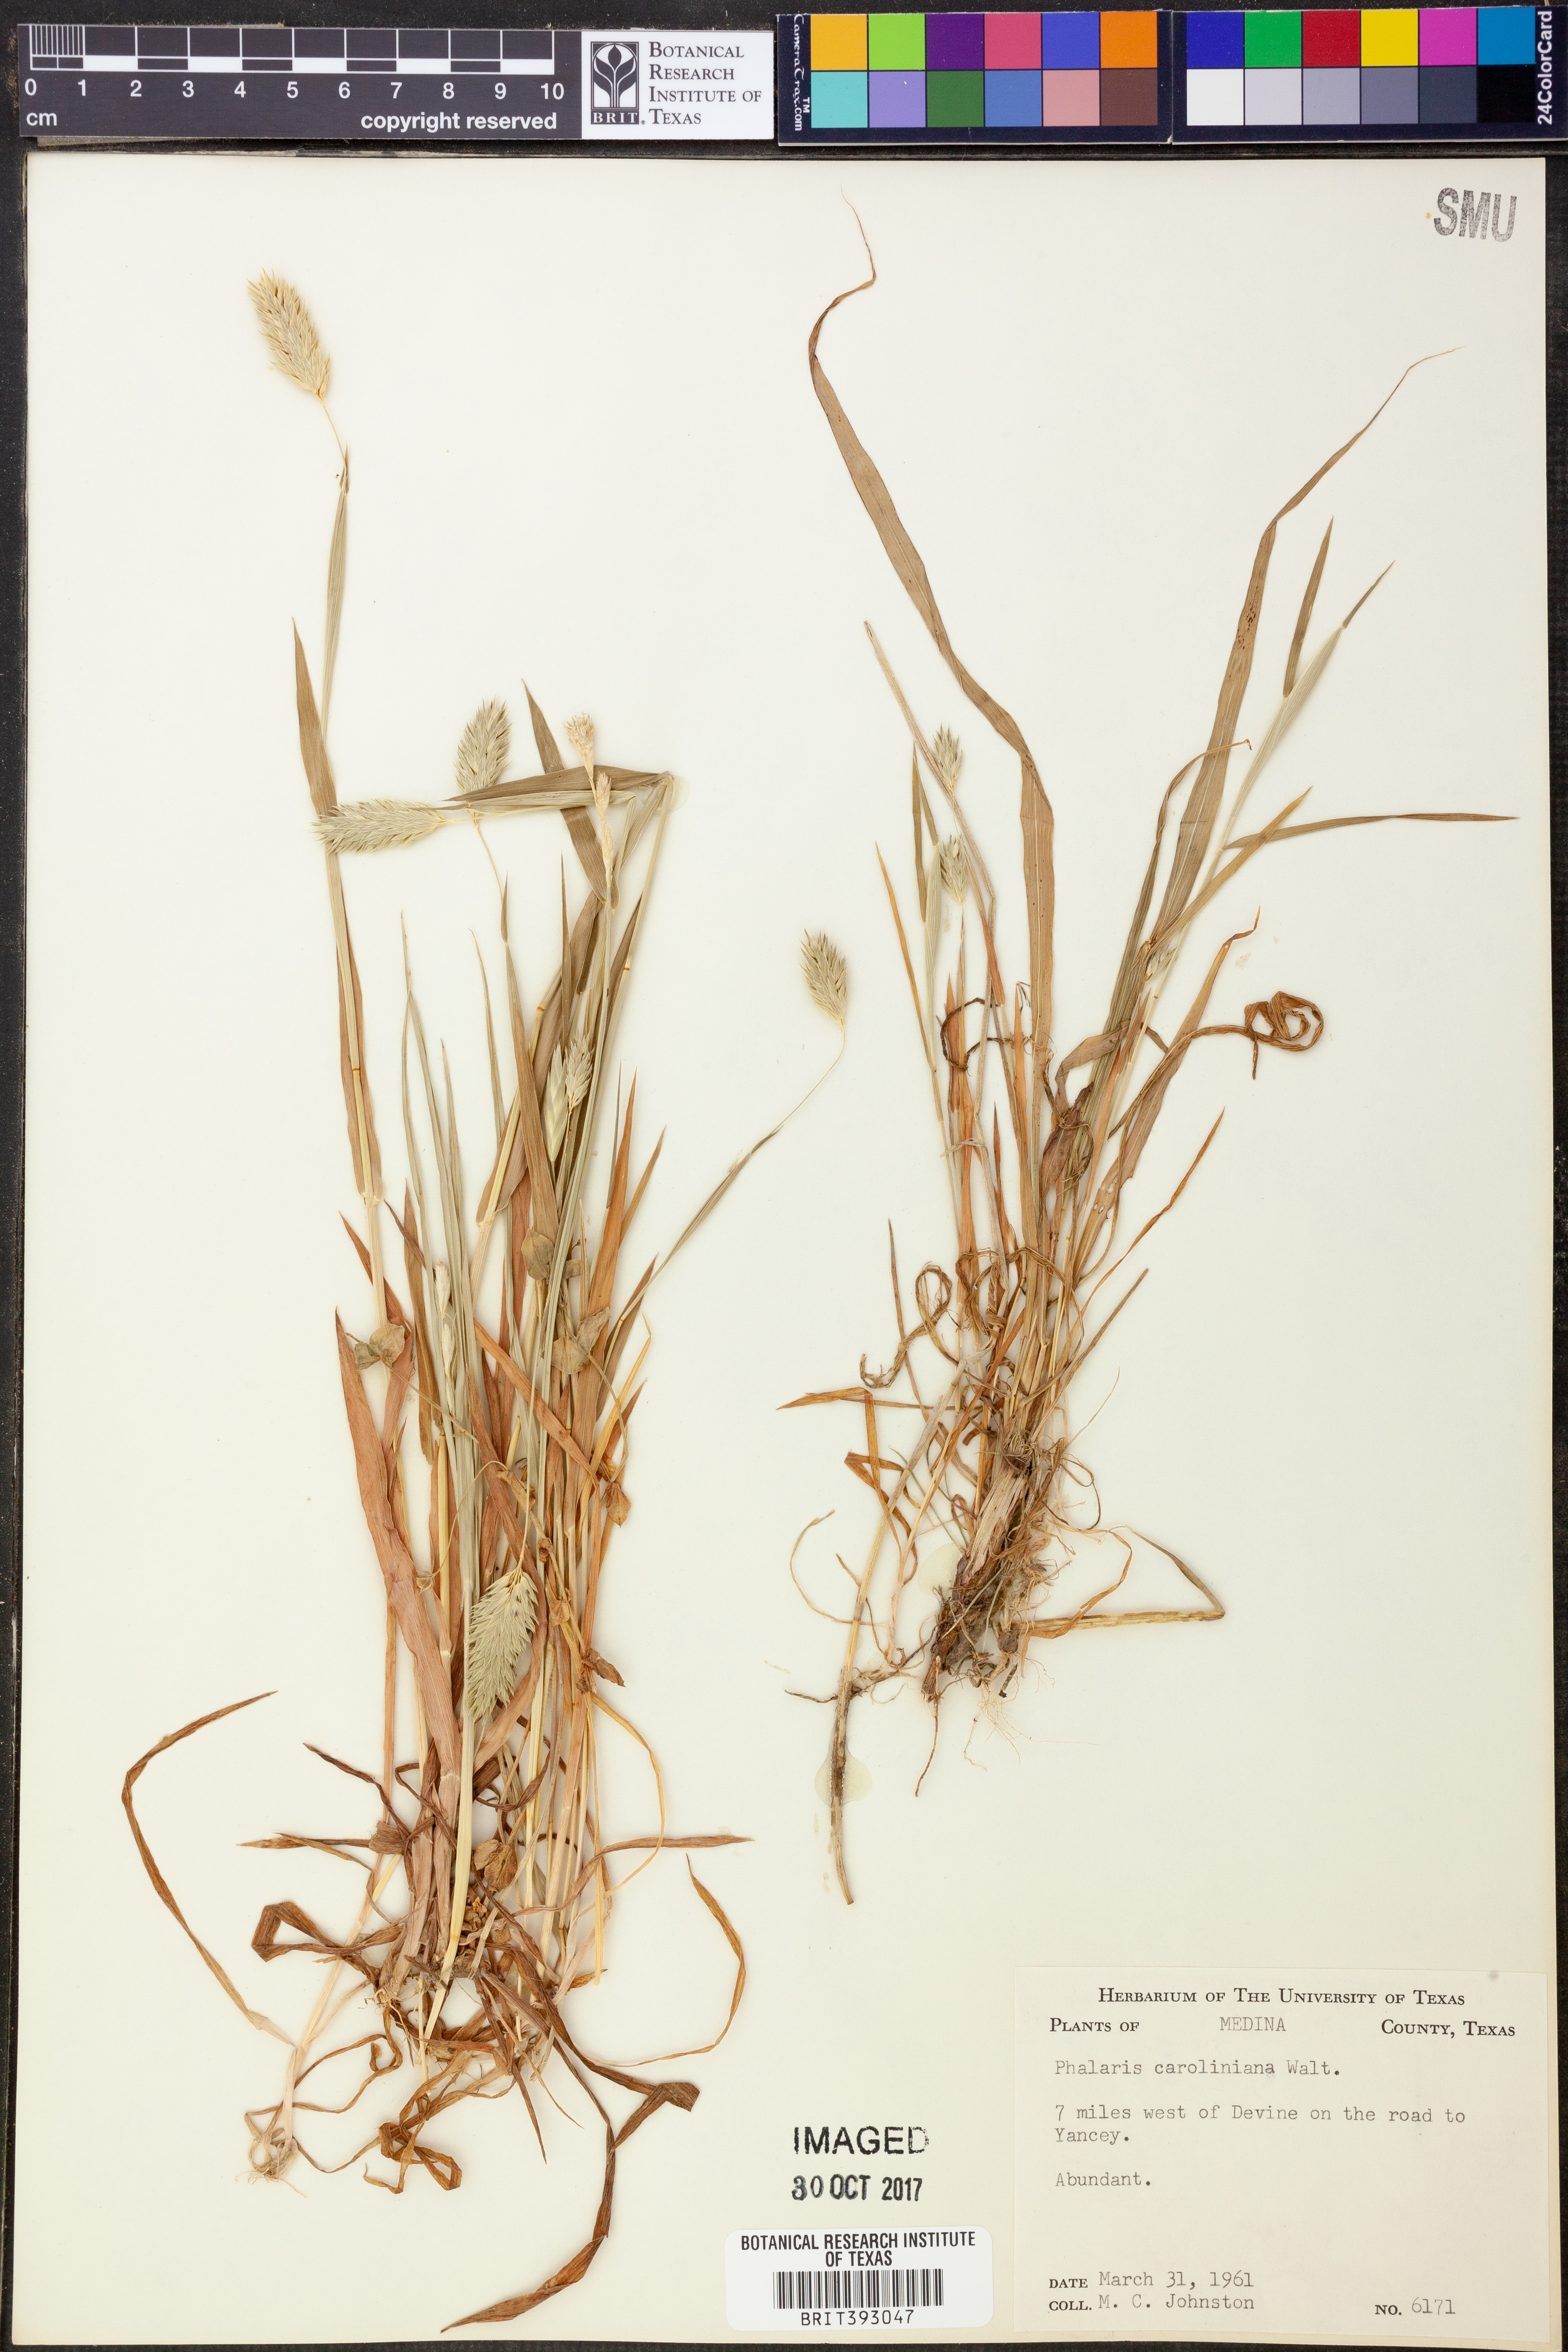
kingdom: Plantae
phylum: Tracheophyta
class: Liliopsida
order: Poales
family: Poaceae
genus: Phalaris
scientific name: Phalaris caroliniana
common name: May grass
